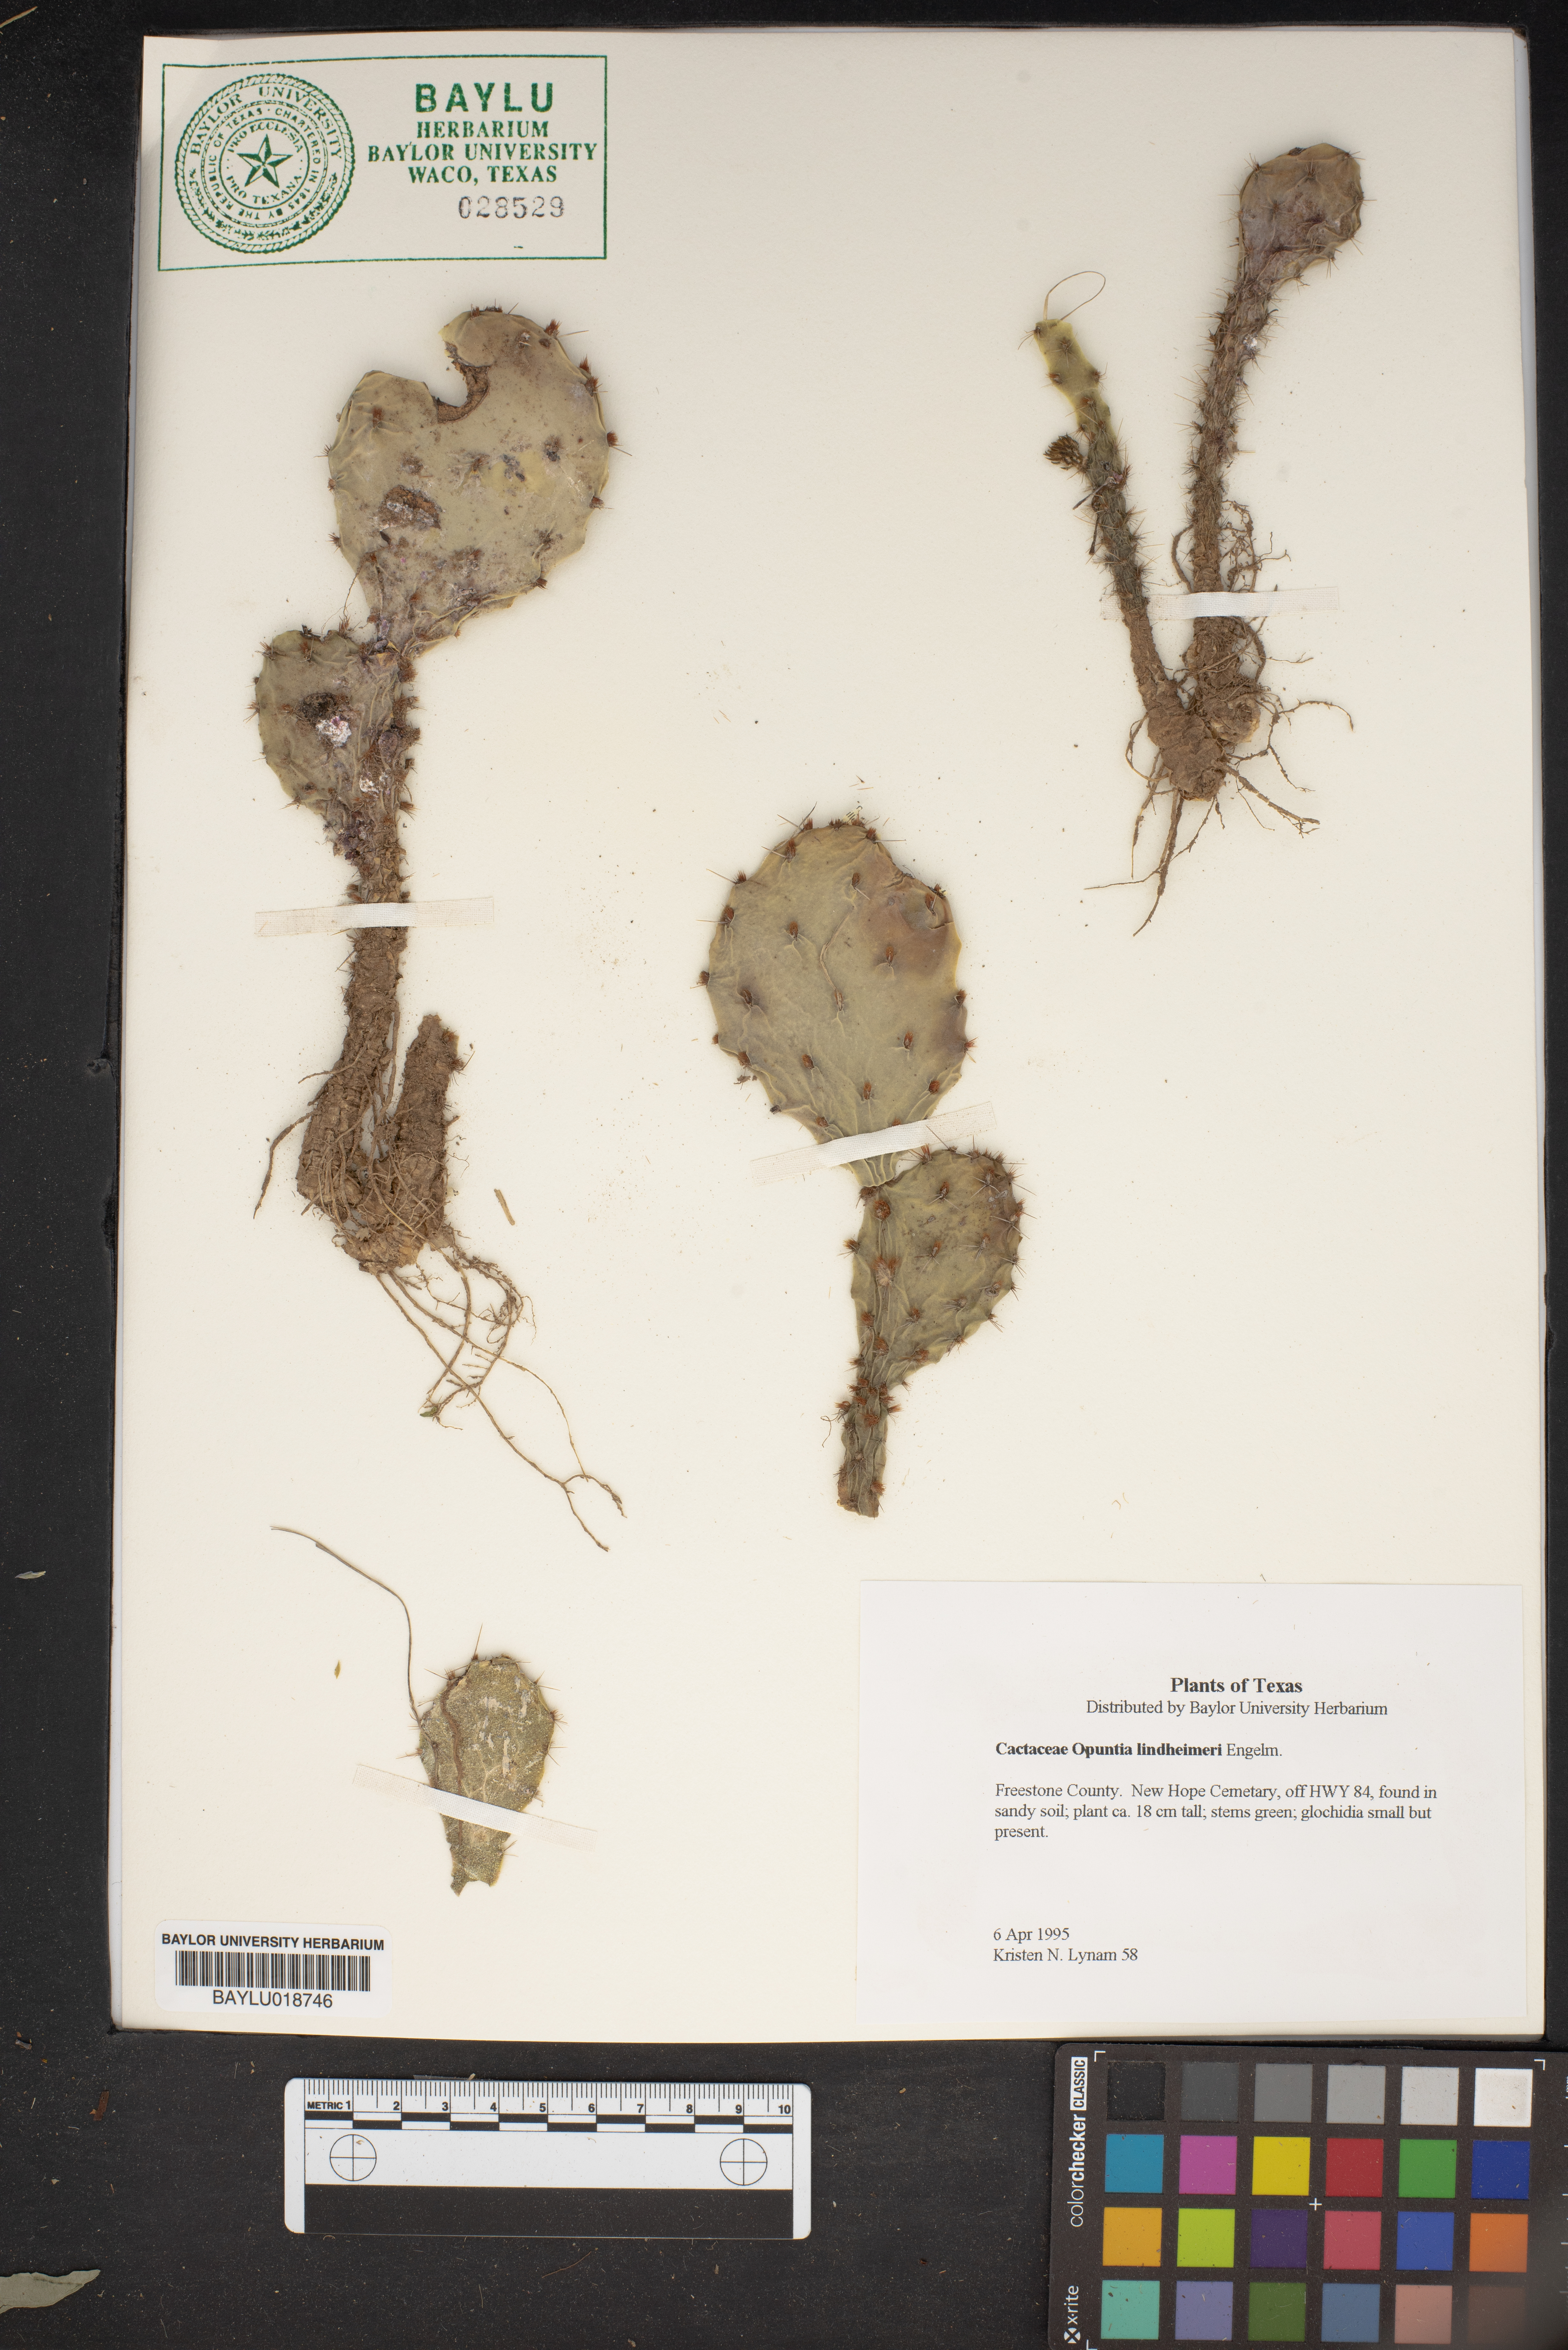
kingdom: Plantae
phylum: Tracheophyta
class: Magnoliopsida
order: Caryophyllales
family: Cactaceae
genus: Opuntia
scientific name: Opuntia engelmannii
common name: Cactus-apple
